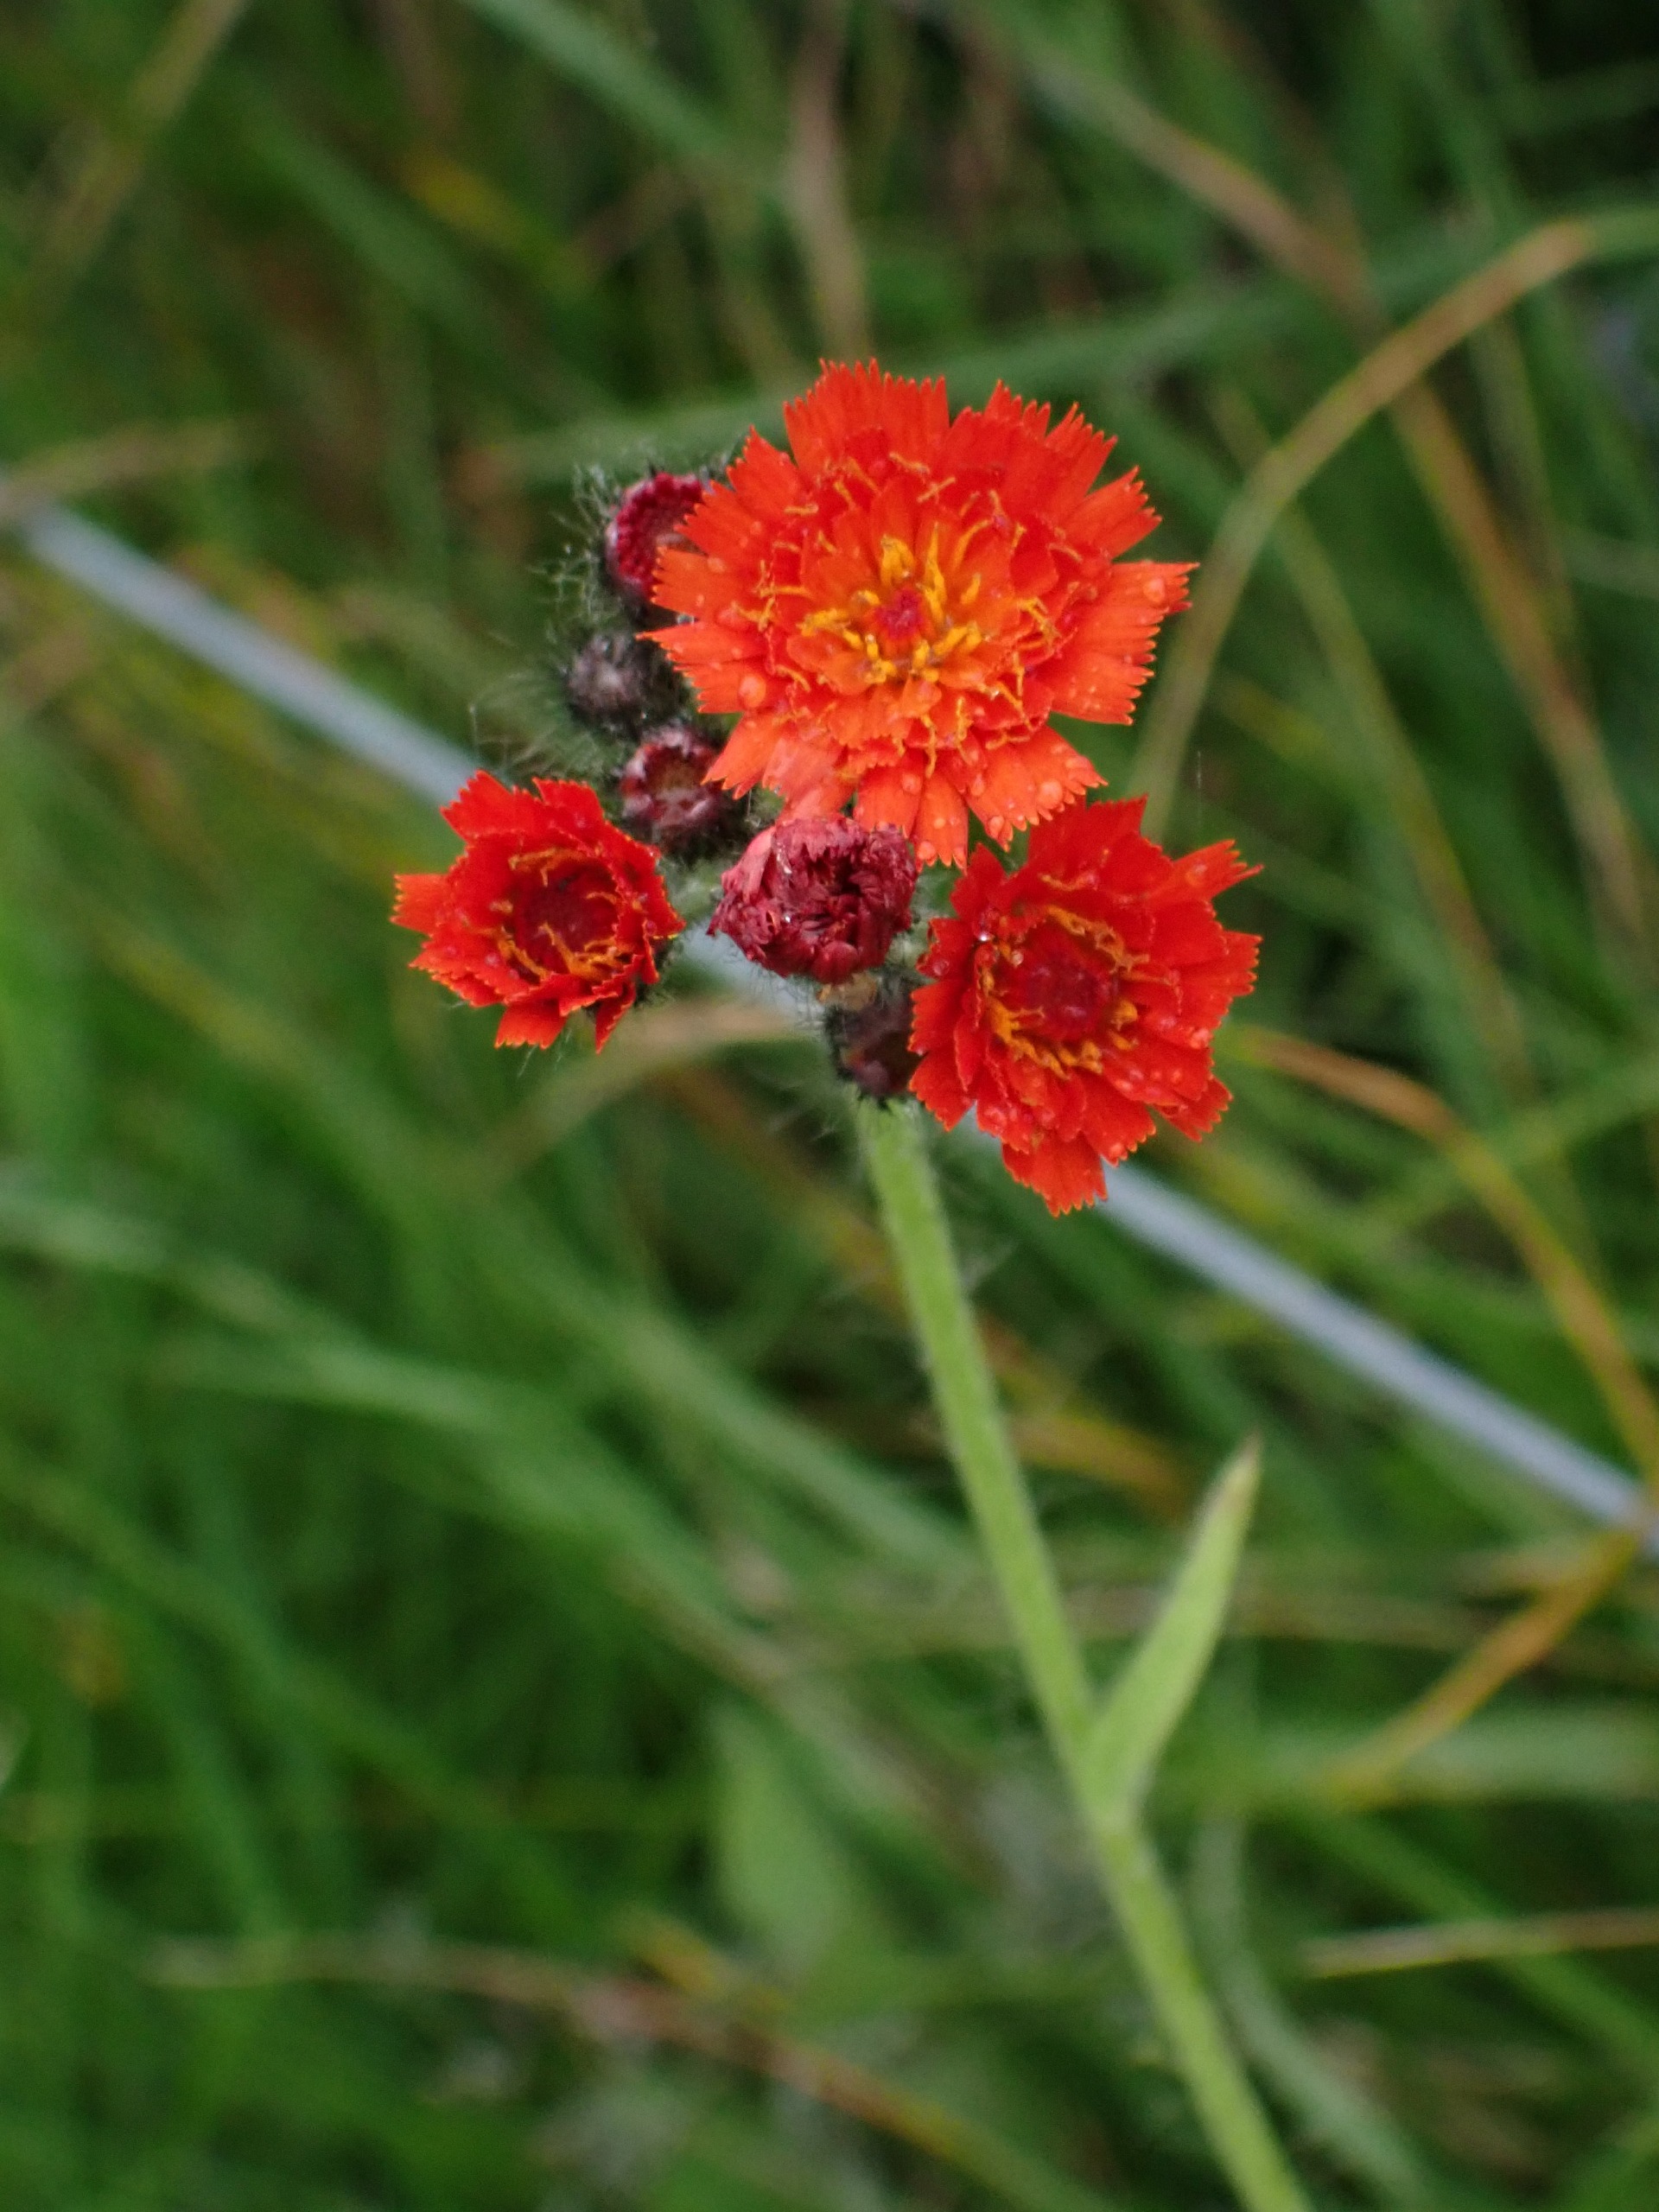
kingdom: Plantae
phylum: Tracheophyta
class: Magnoliopsida
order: Asterales
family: Asteraceae
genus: Pilosella
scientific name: Pilosella aurantiaca
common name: Pomerans-høgeurt
